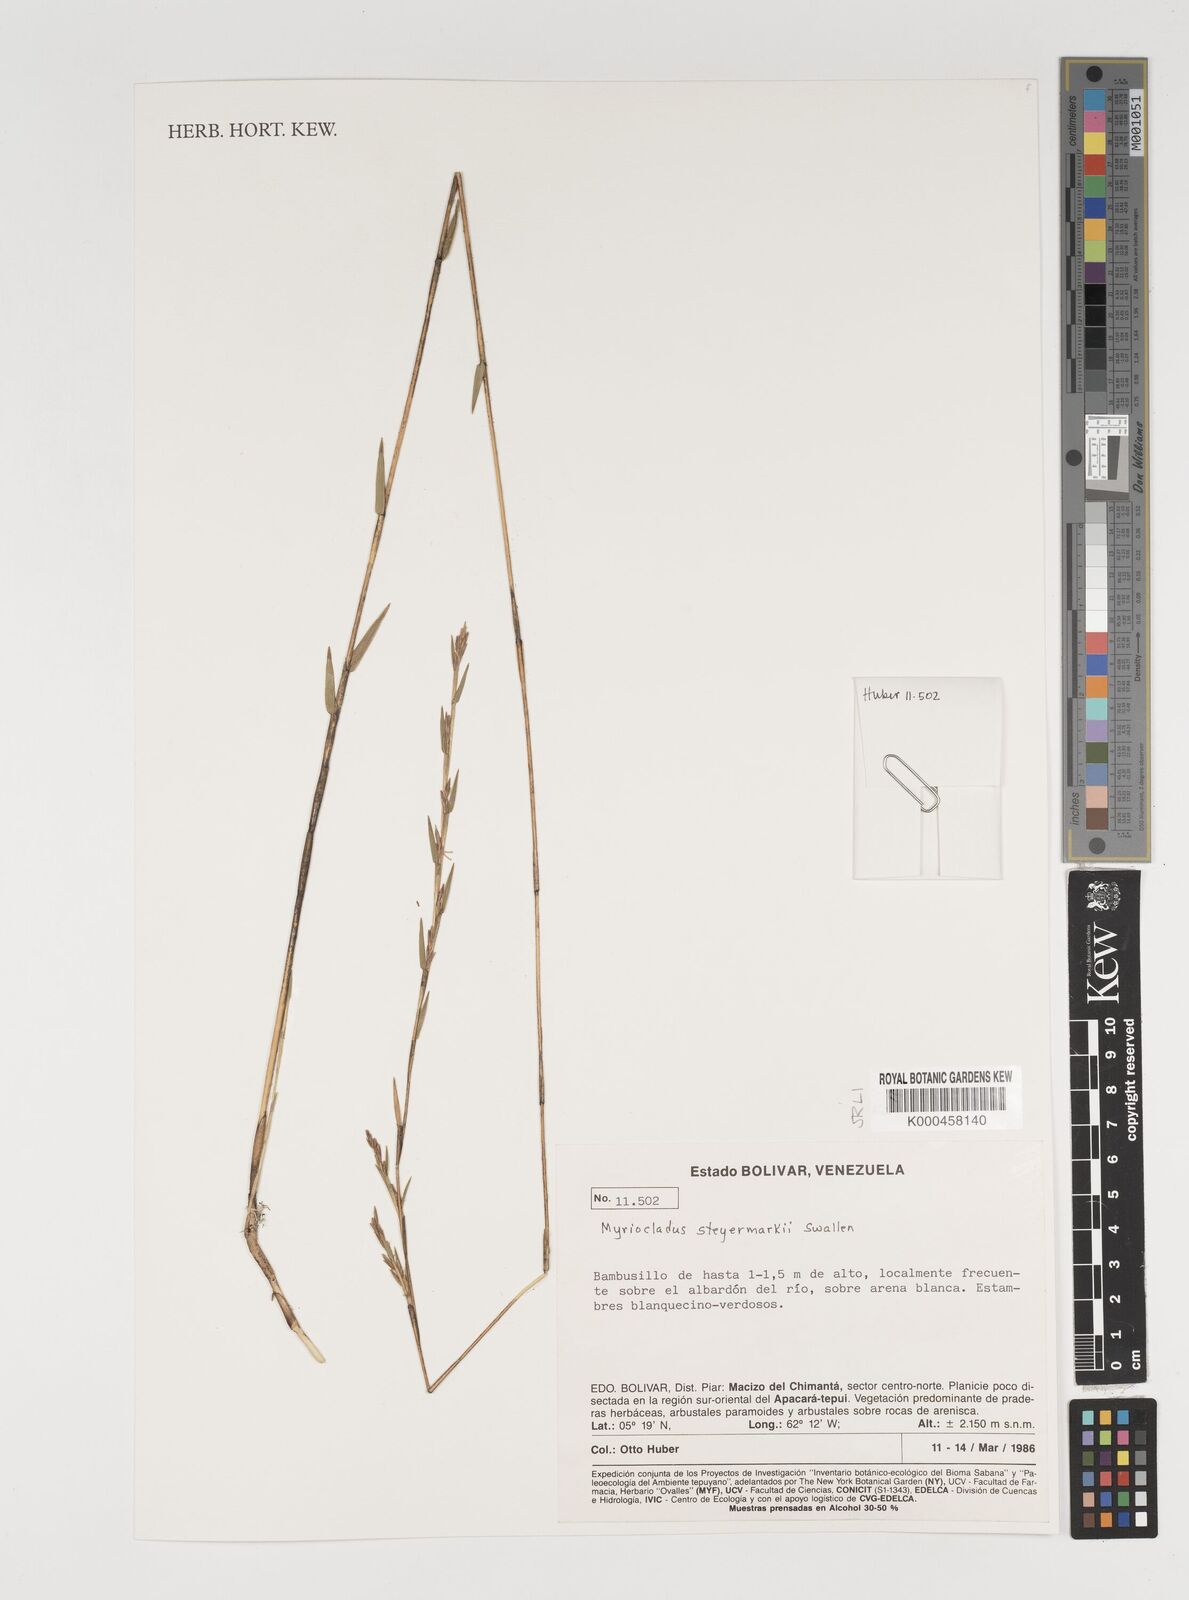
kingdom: Plantae
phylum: Tracheophyta
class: Liliopsida
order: Poales
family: Poaceae
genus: Myriocladus
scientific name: Myriocladus steyermarkii
